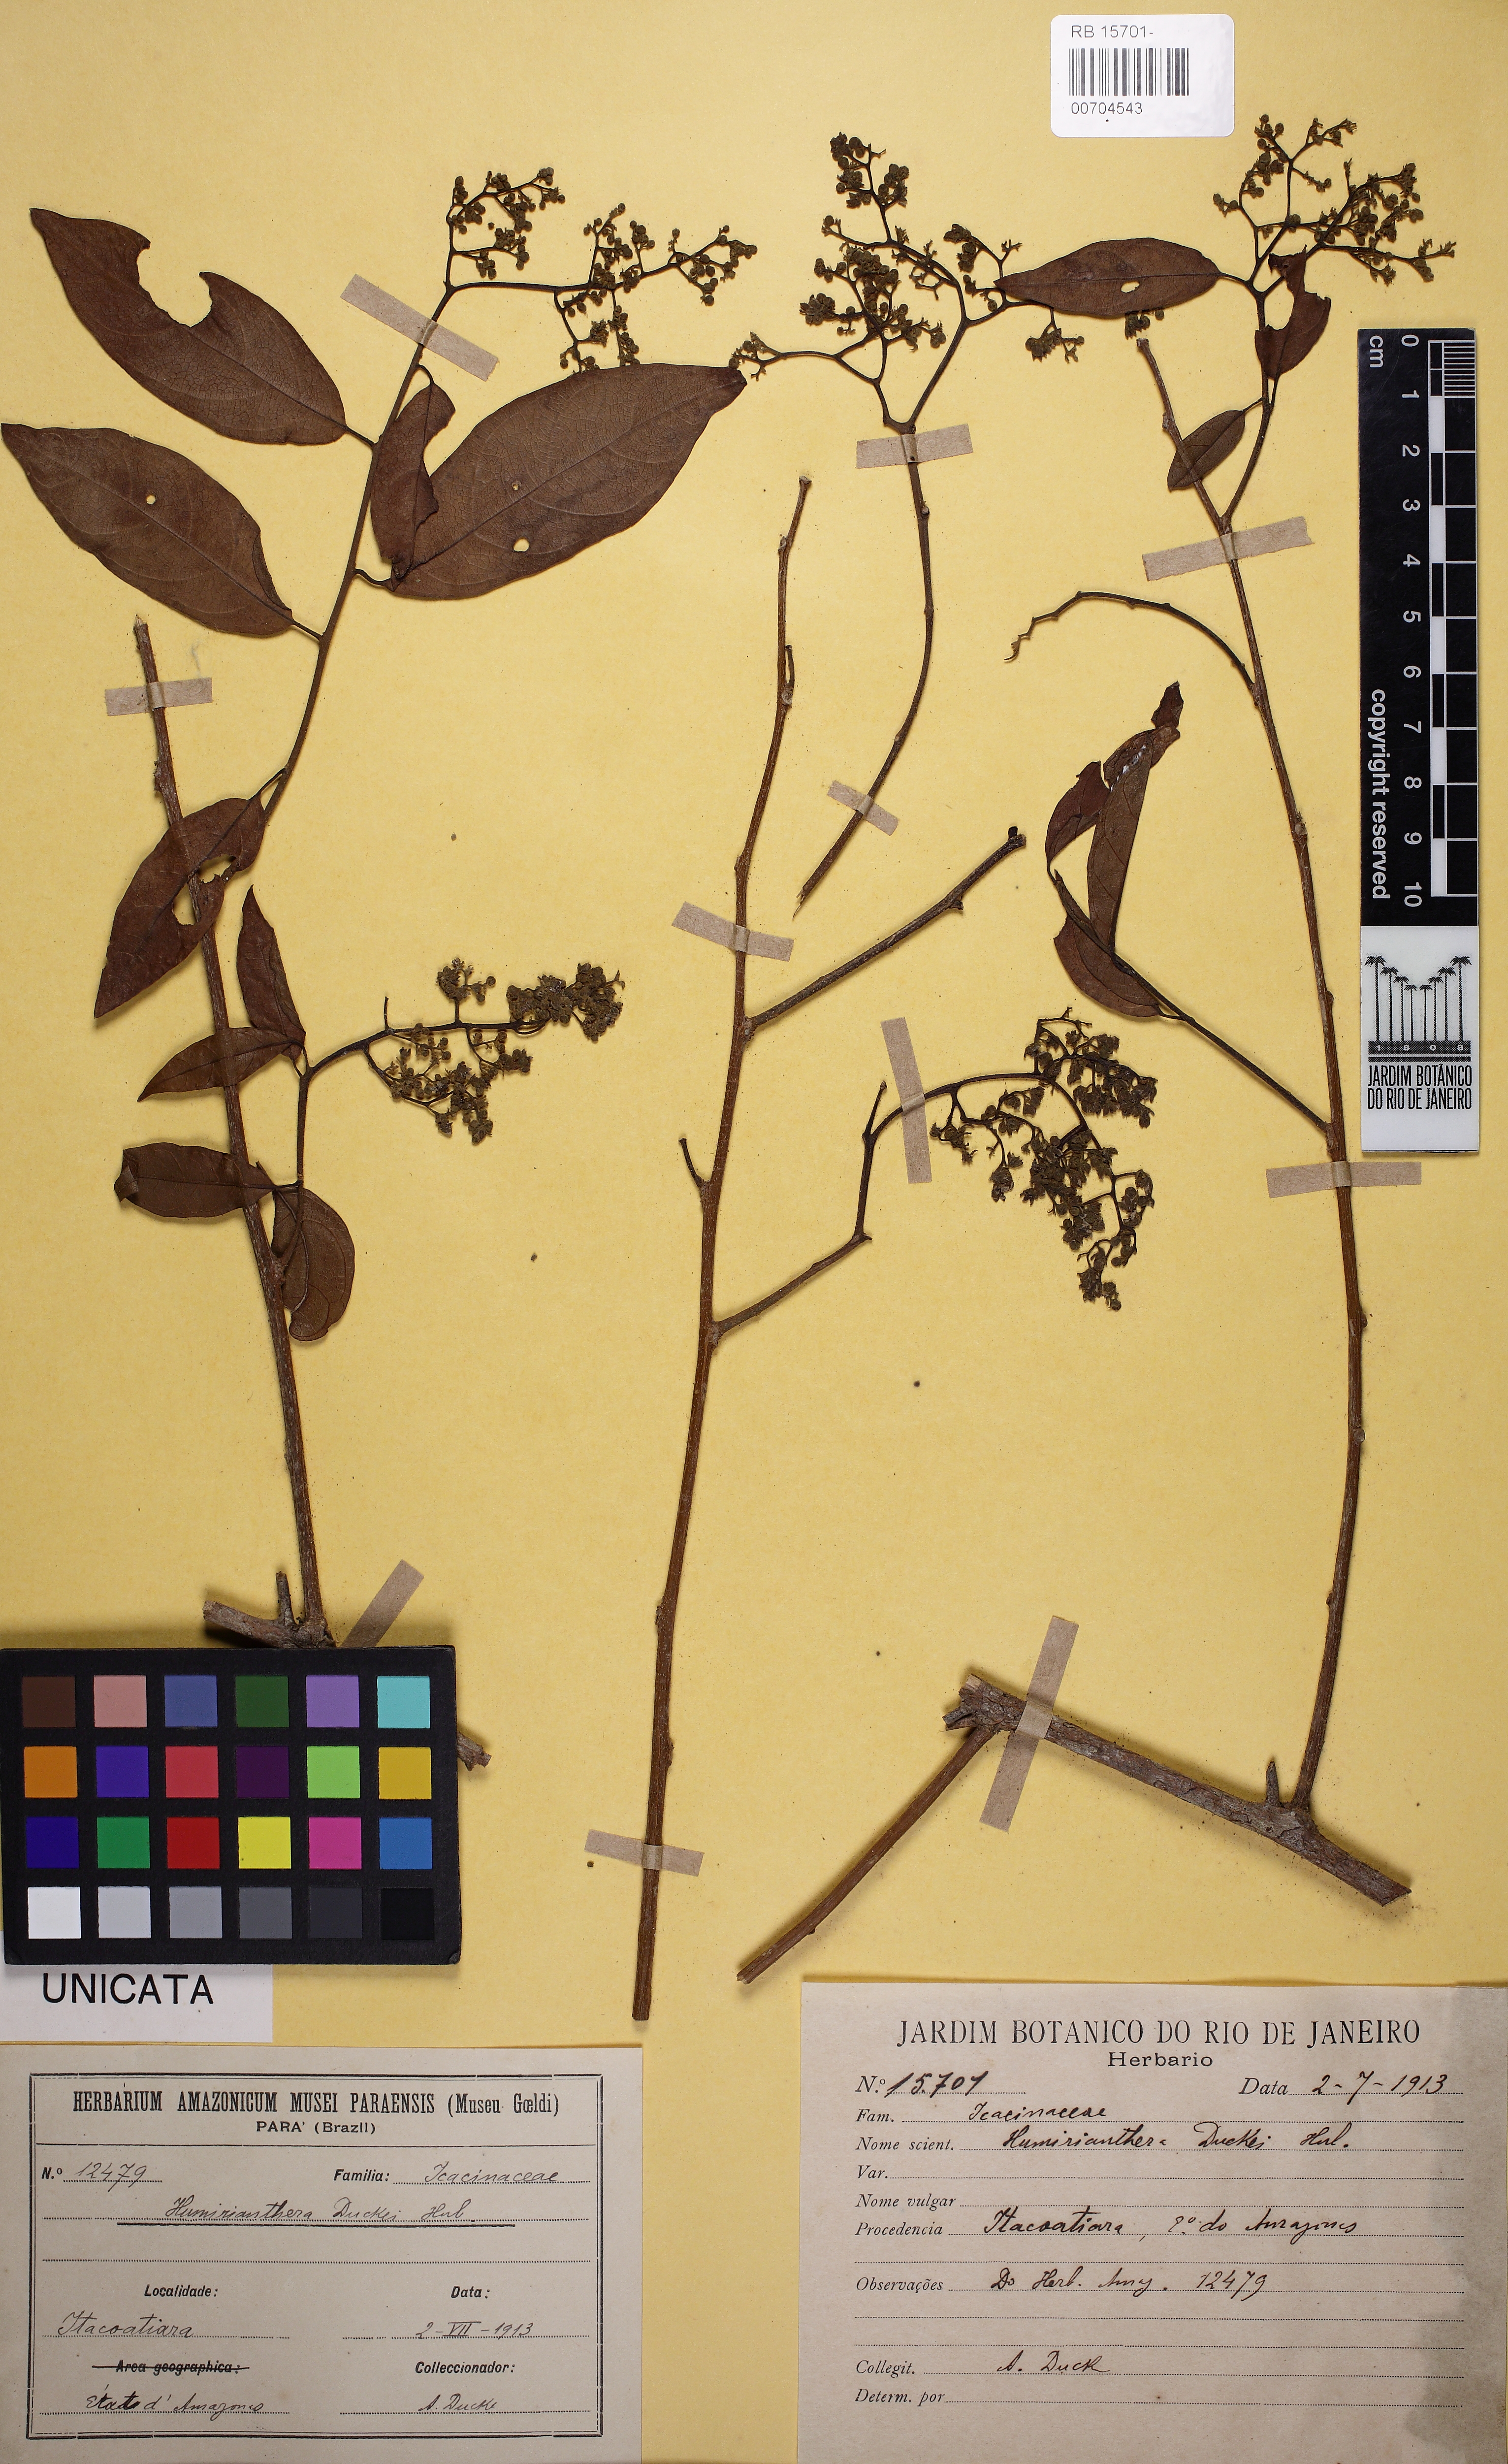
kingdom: Plantae
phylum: Tracheophyta
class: Magnoliopsida
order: Icacinales
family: Icacinaceae
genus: Casimirella
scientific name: Casimirella ampla
